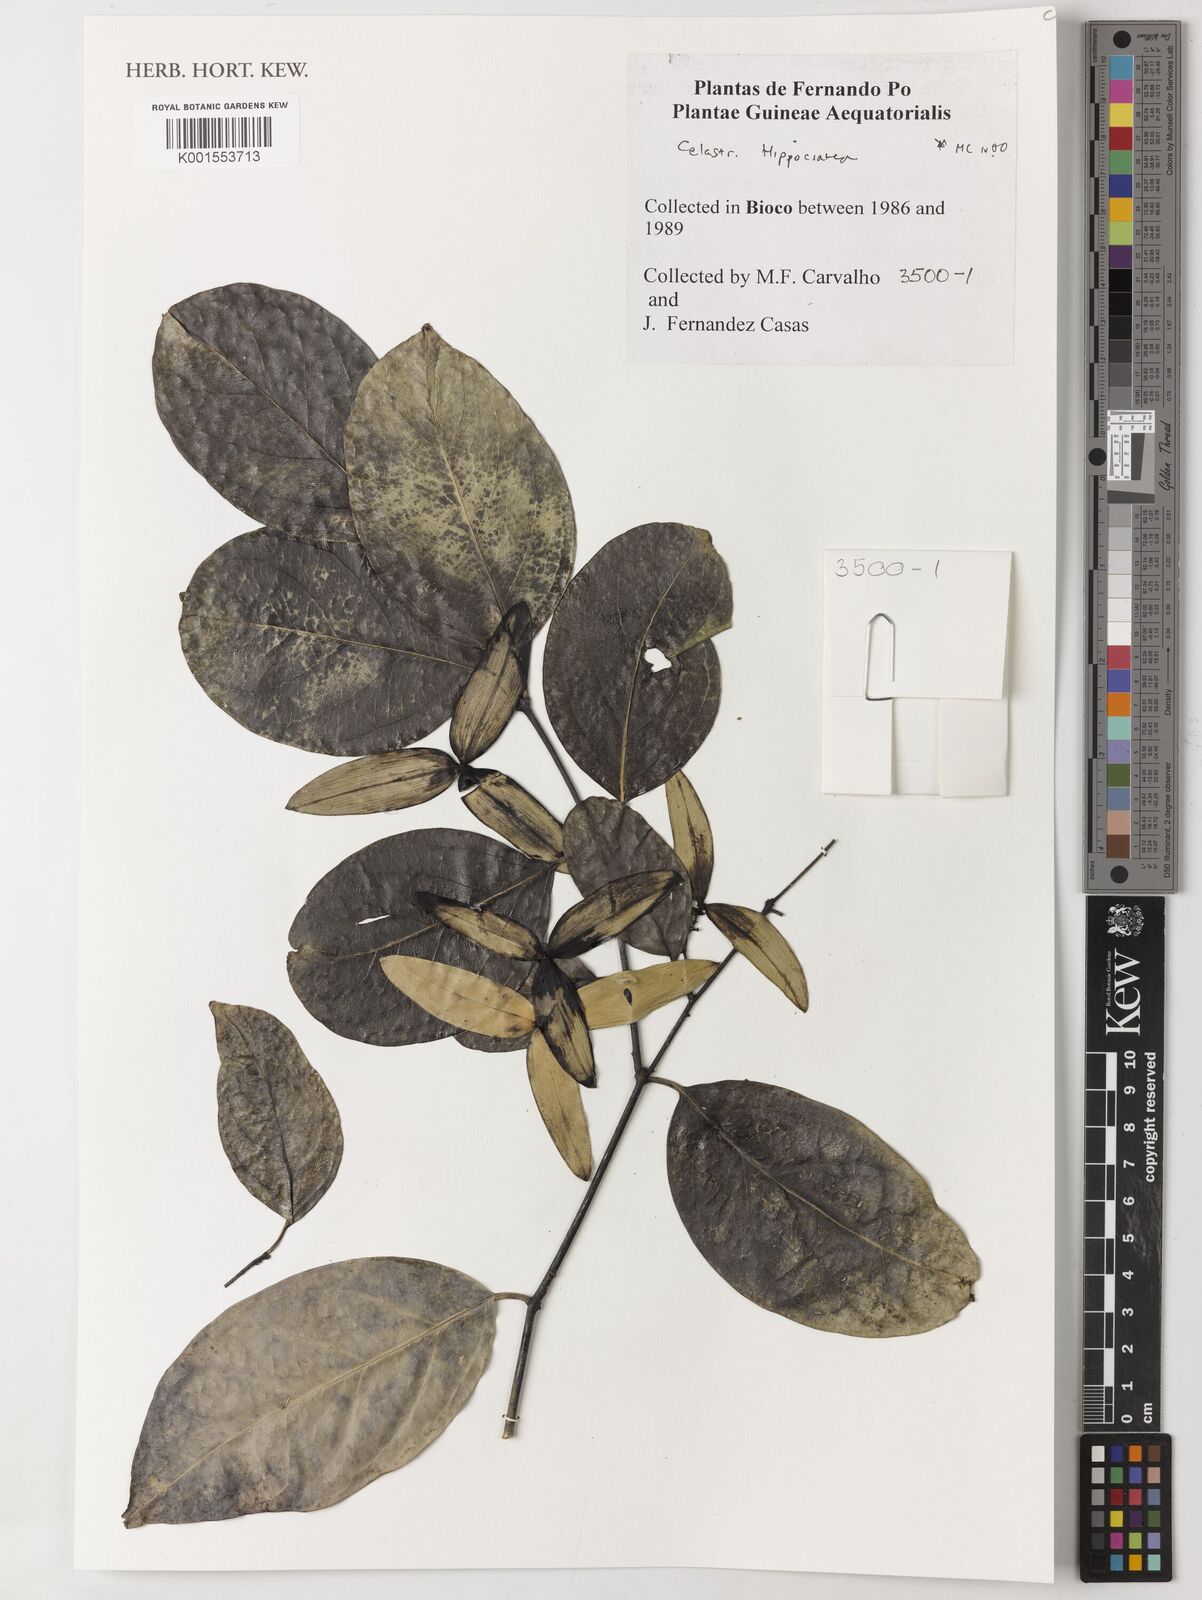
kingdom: Plantae
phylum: Tracheophyta
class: Magnoliopsida
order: Celastrales
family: Celastraceae
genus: Hippocratea
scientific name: Hippocratea
